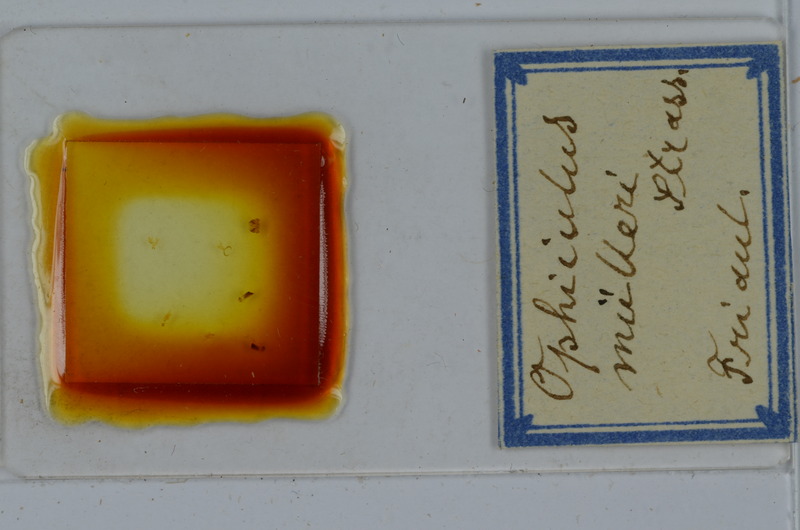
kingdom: Animalia
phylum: Arthropoda
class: Diplopoda
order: Julida
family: Julidae
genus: Ophyiulus
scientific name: Ophyiulus muelleri
